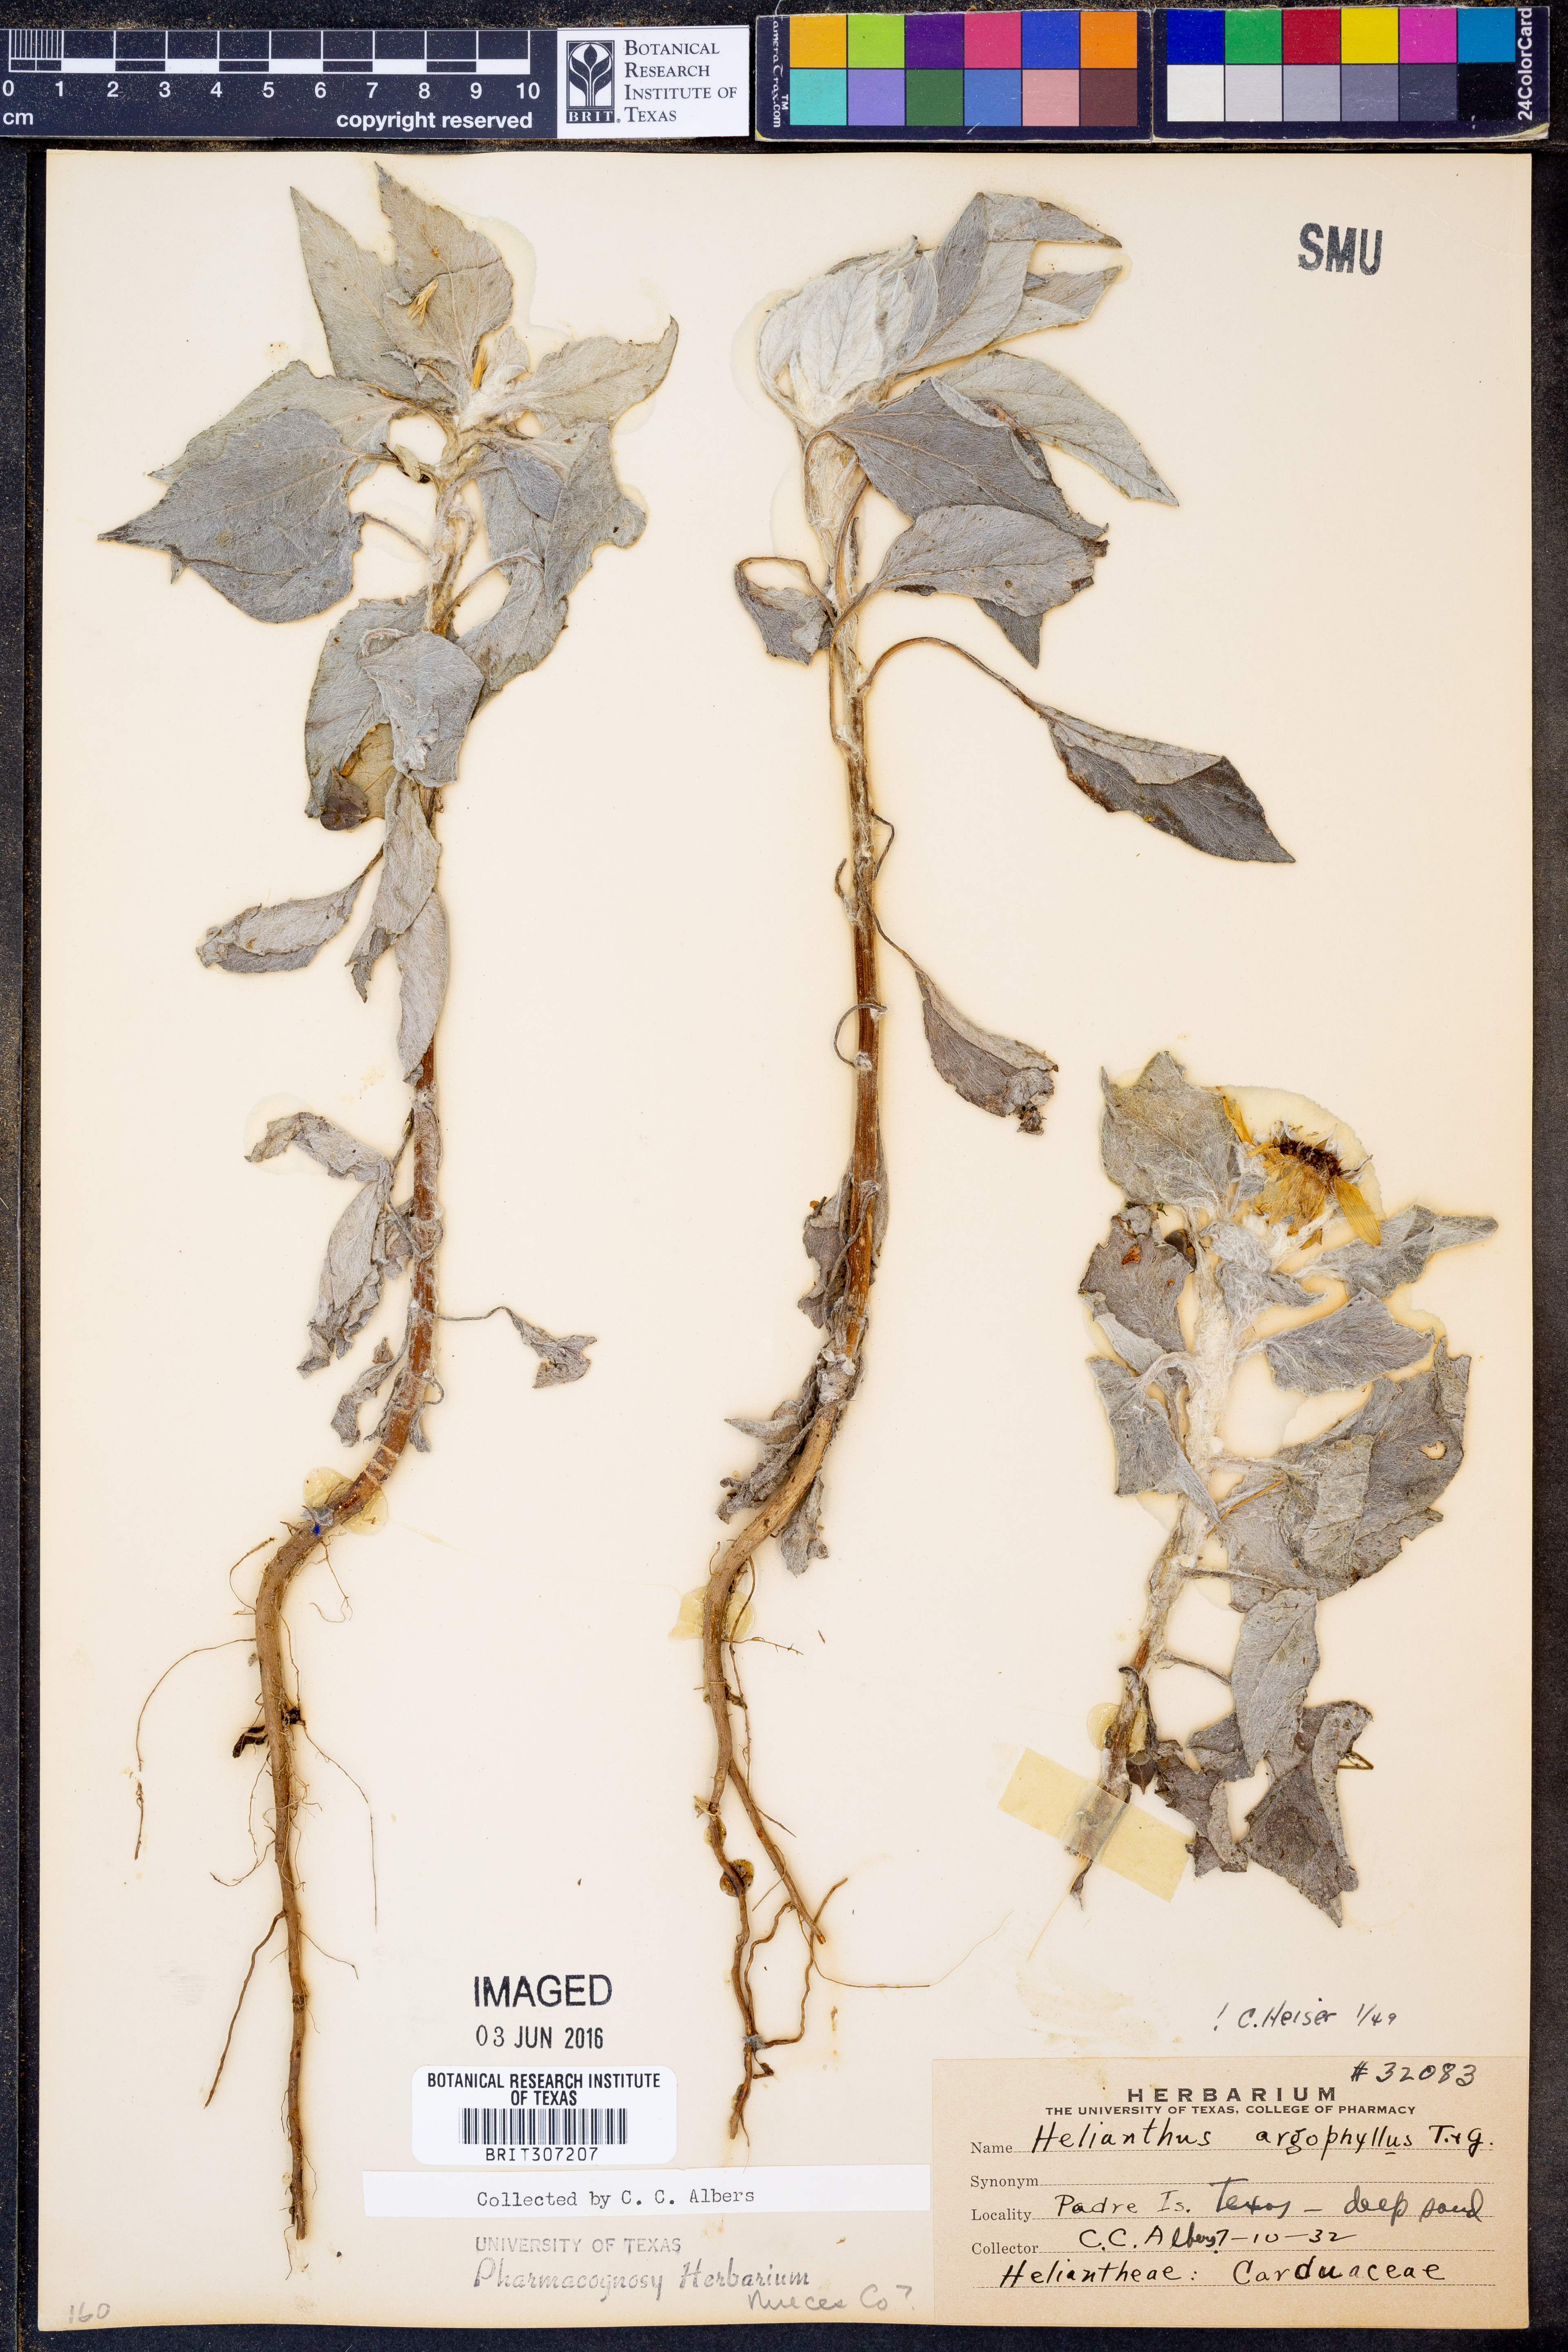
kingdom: Plantae
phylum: Tracheophyta
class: Magnoliopsida
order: Asterales
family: Asteraceae
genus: Helianthus
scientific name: Helianthus argophyllus
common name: Silverleaf sunflower
